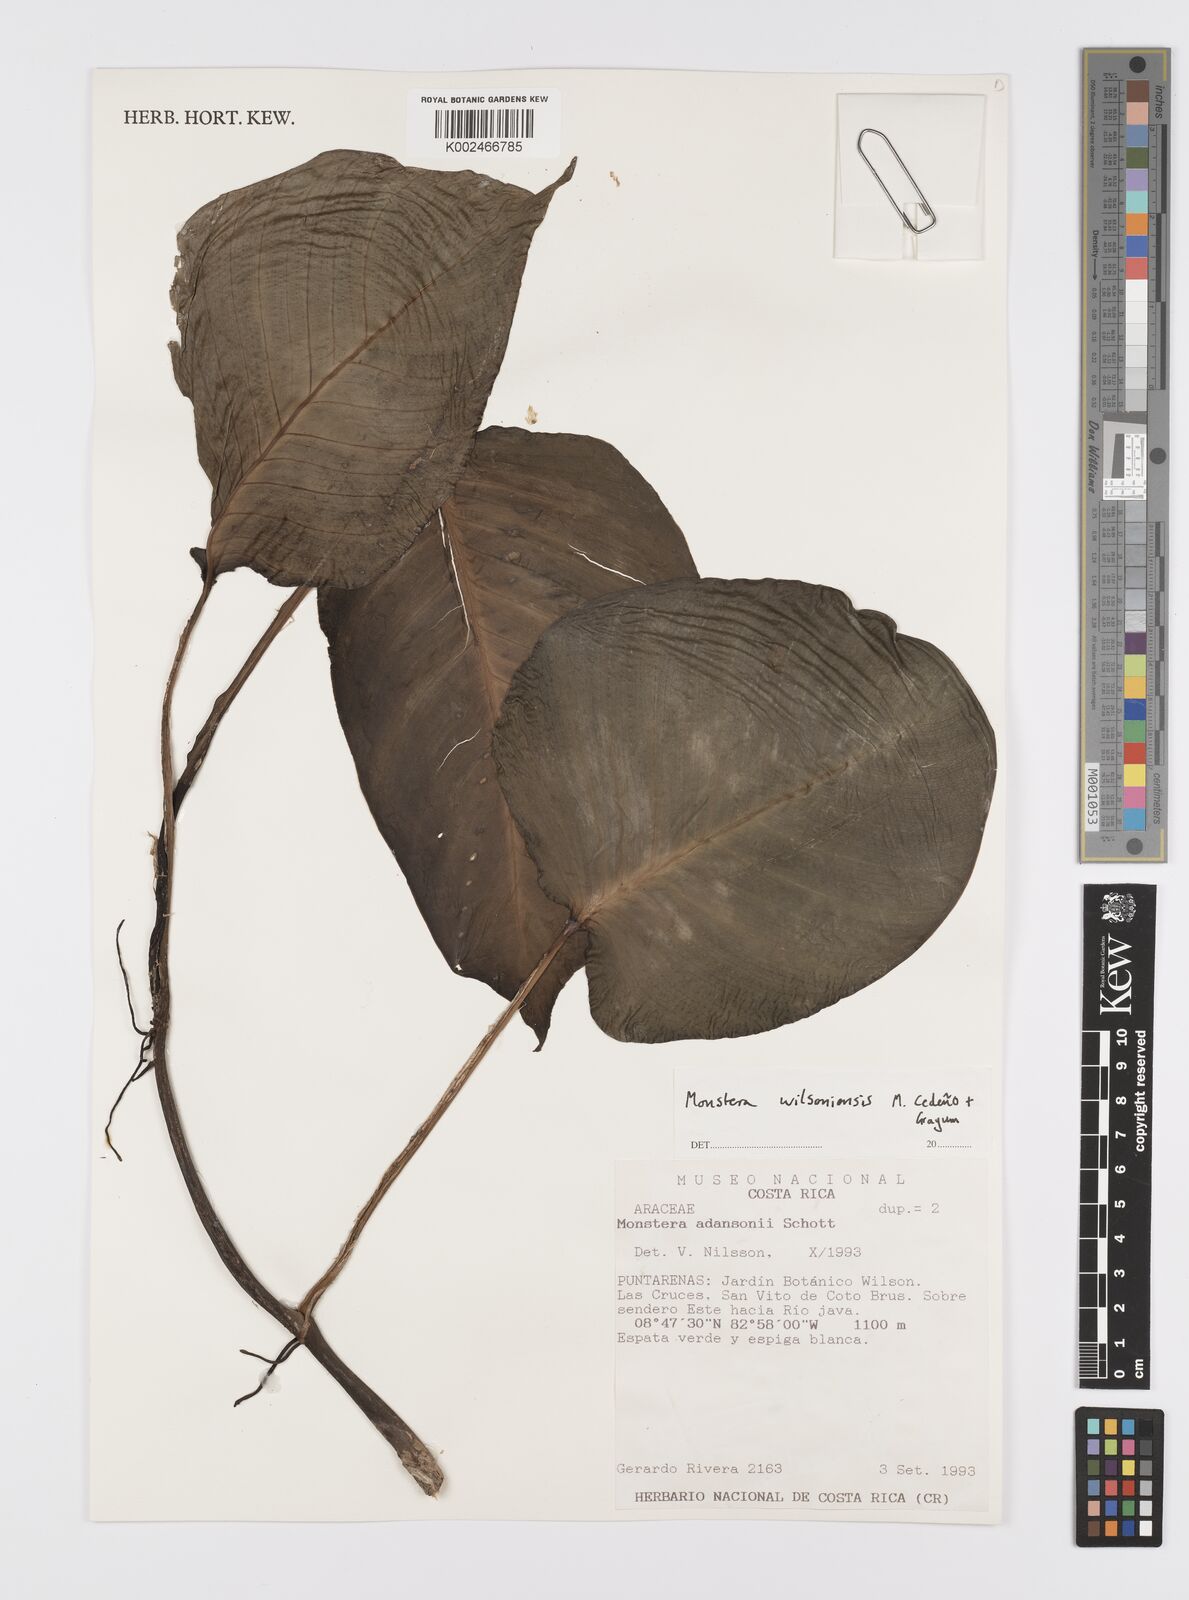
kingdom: Plantae
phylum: Tracheophyta
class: Liliopsida
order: Alismatales
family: Araceae
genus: Monstera
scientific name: Monstera
